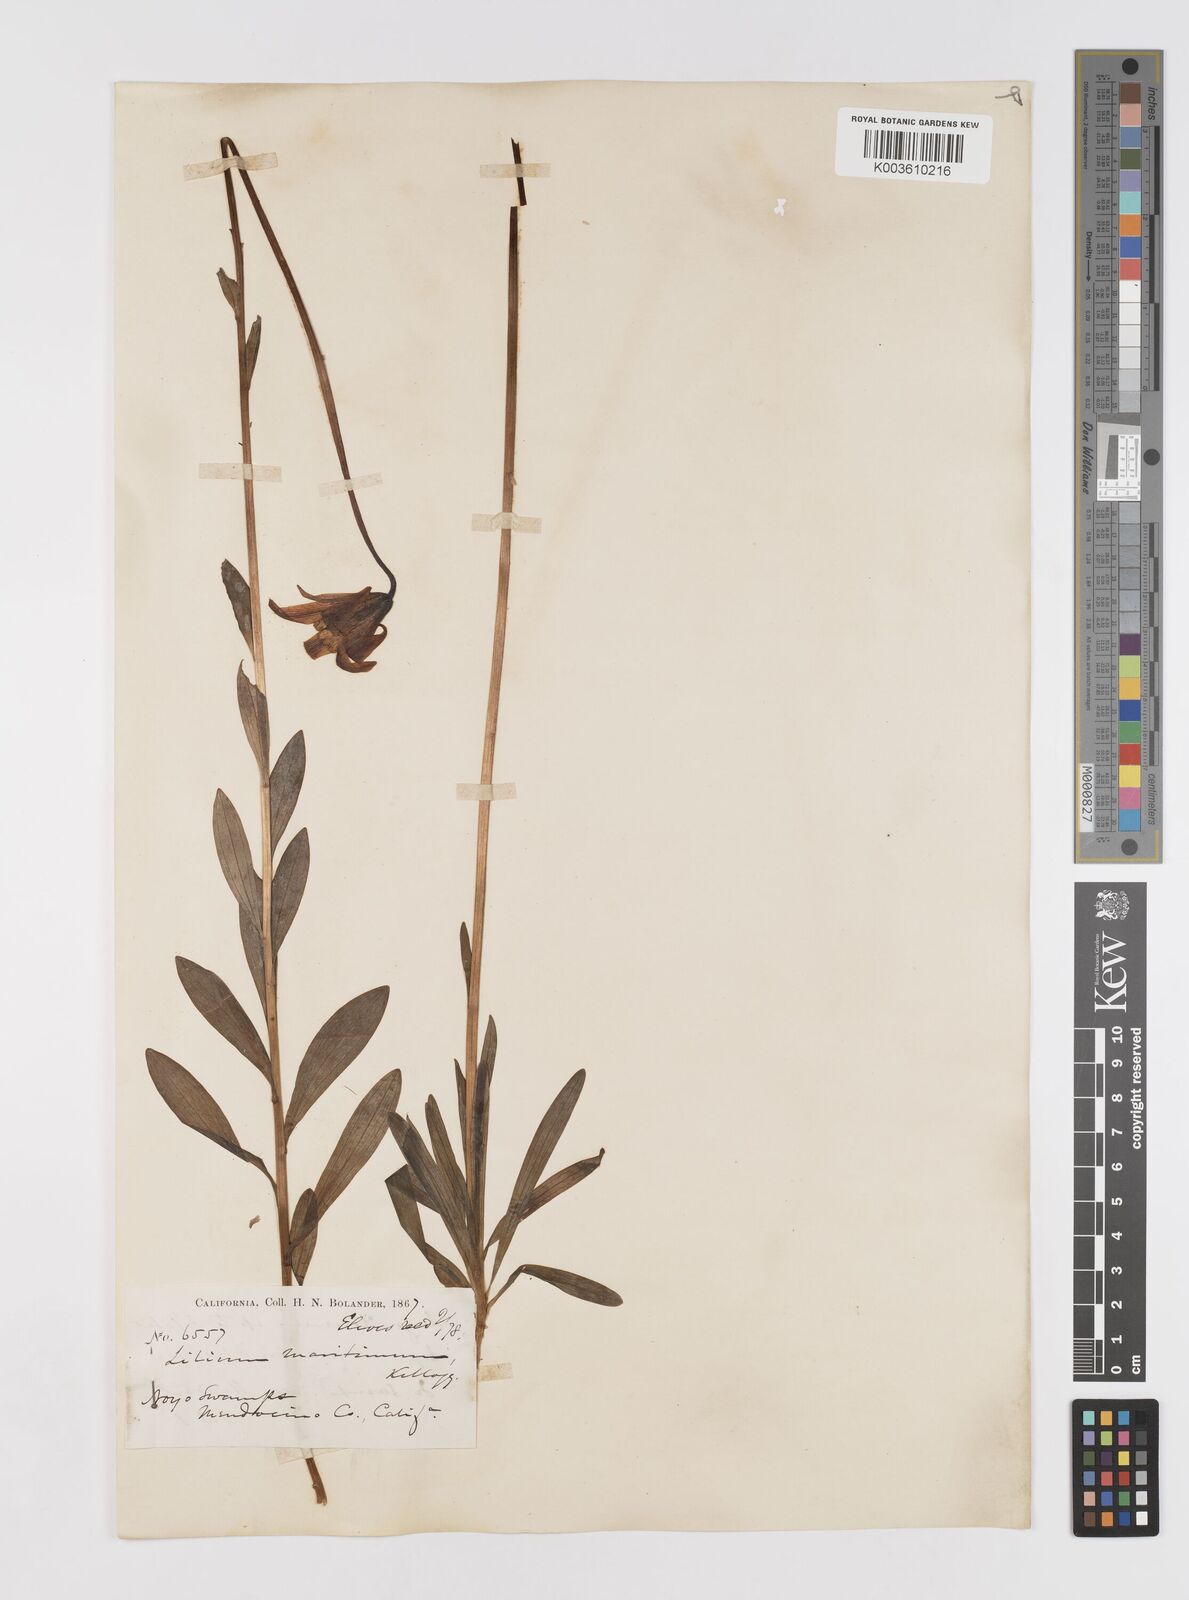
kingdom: Plantae
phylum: Tracheophyta
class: Liliopsida
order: Liliales
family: Liliaceae
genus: Lilium
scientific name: Lilium maritimum
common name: Coastal lily
